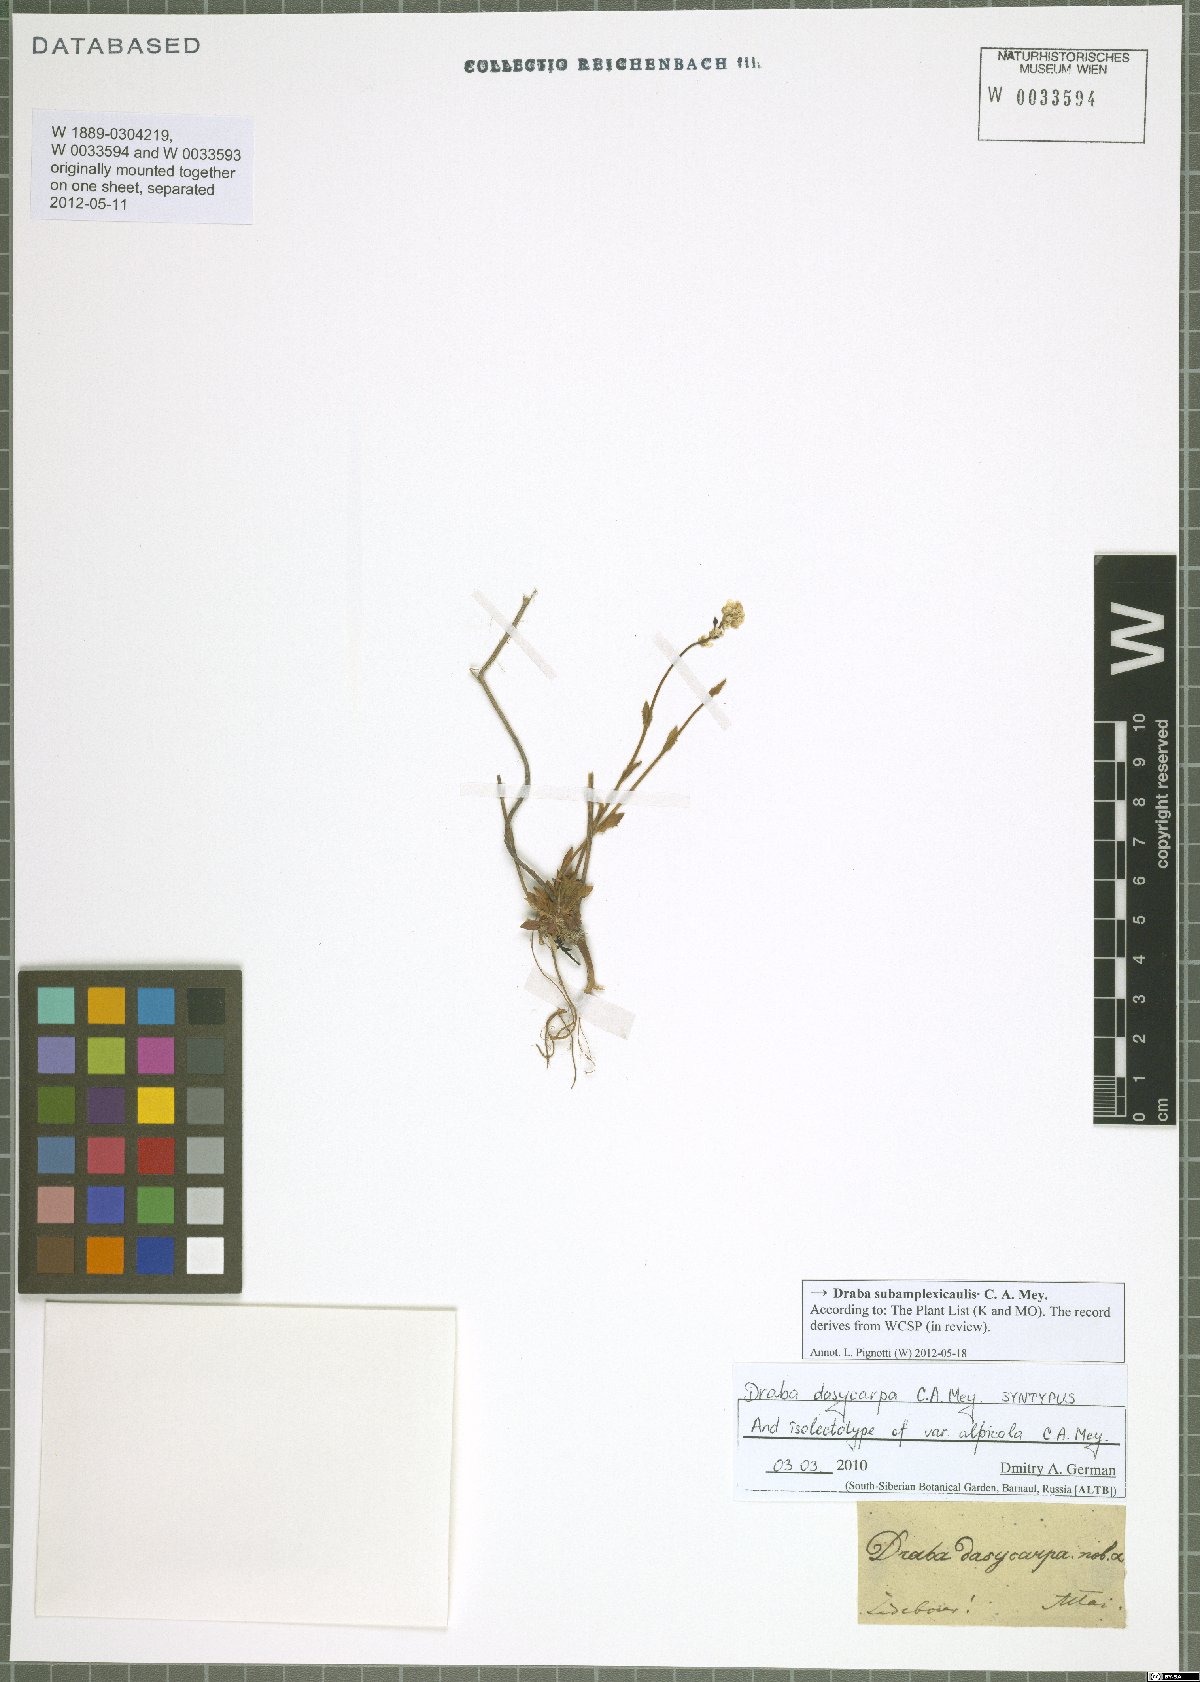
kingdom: Plantae
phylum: Tracheophyta
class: Magnoliopsida
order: Brassicales
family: Brassicaceae
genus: Draba
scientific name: Draba subamplexicaulis
